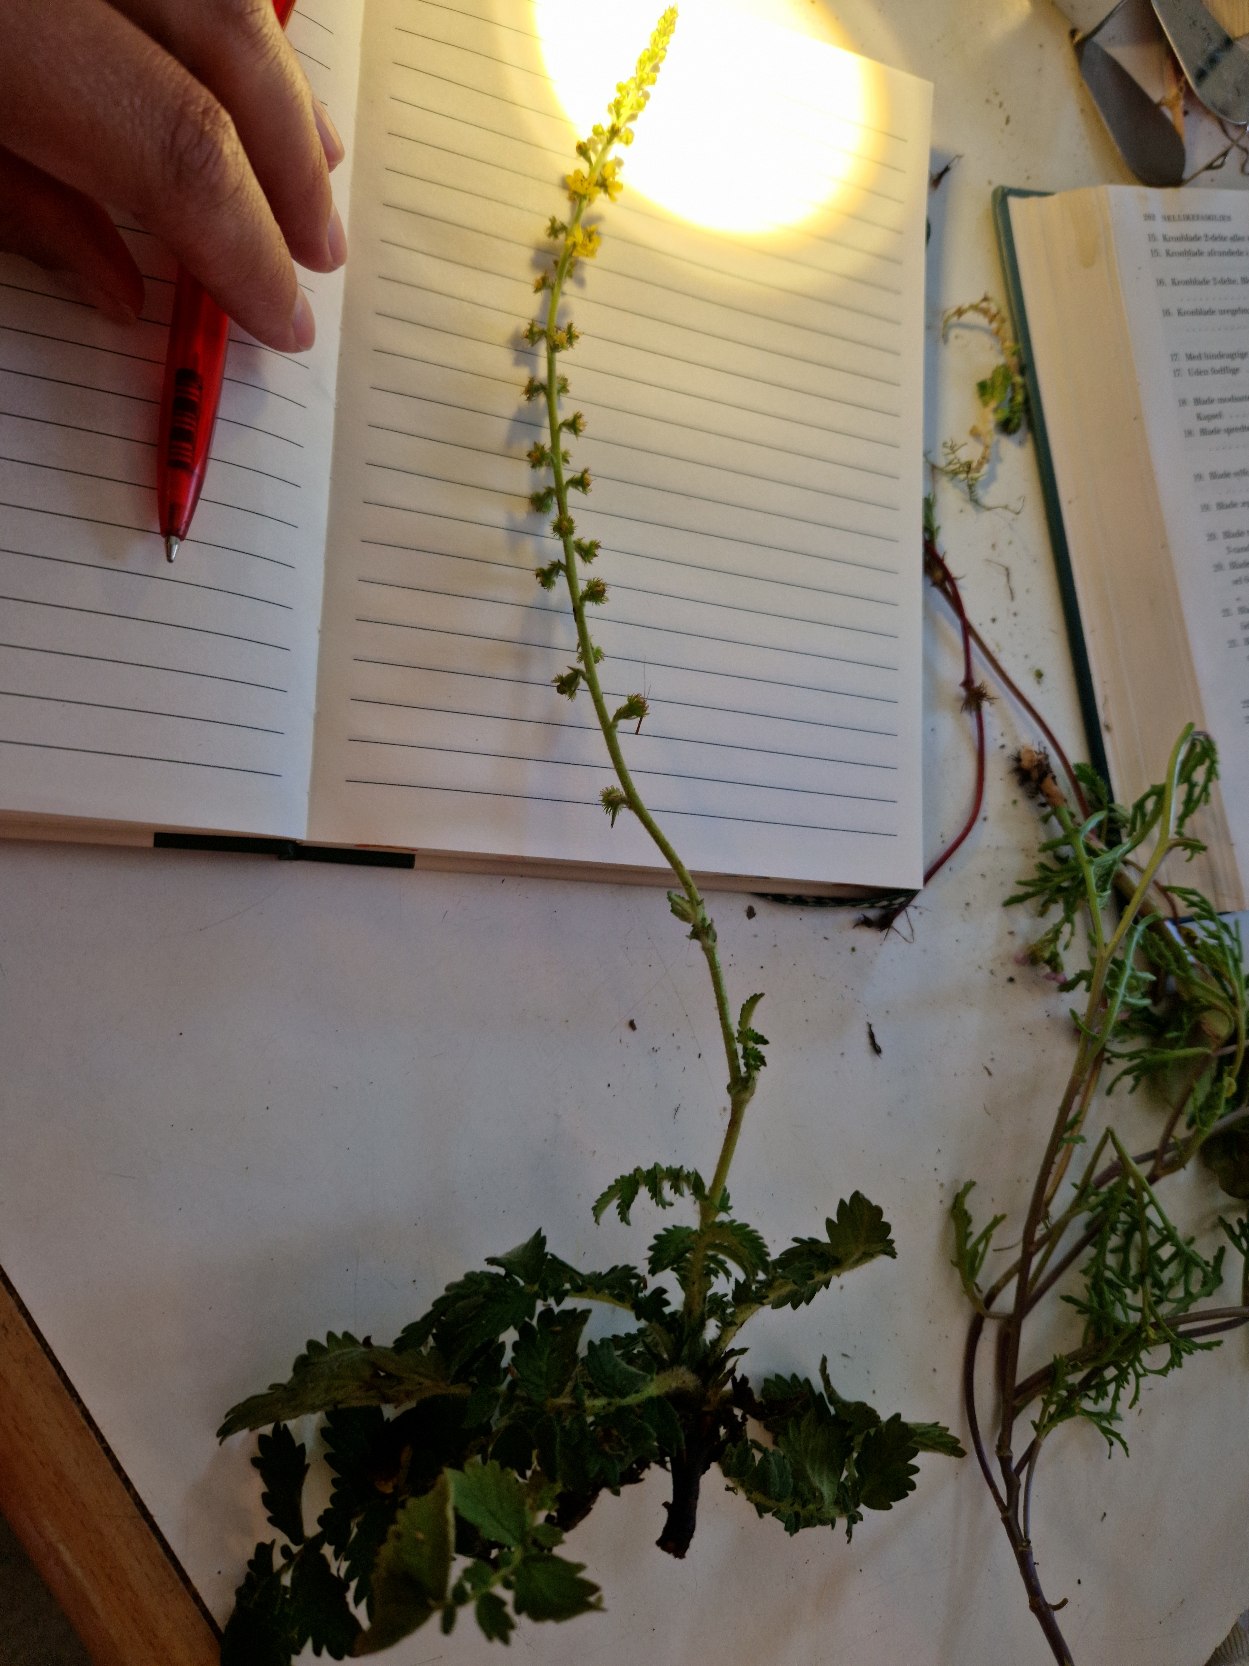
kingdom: Plantae
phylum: Tracheophyta
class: Magnoliopsida
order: Rosales
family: Rosaceae
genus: Agrimonia
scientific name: Agrimonia eupatoria
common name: Almindelig agermåne
